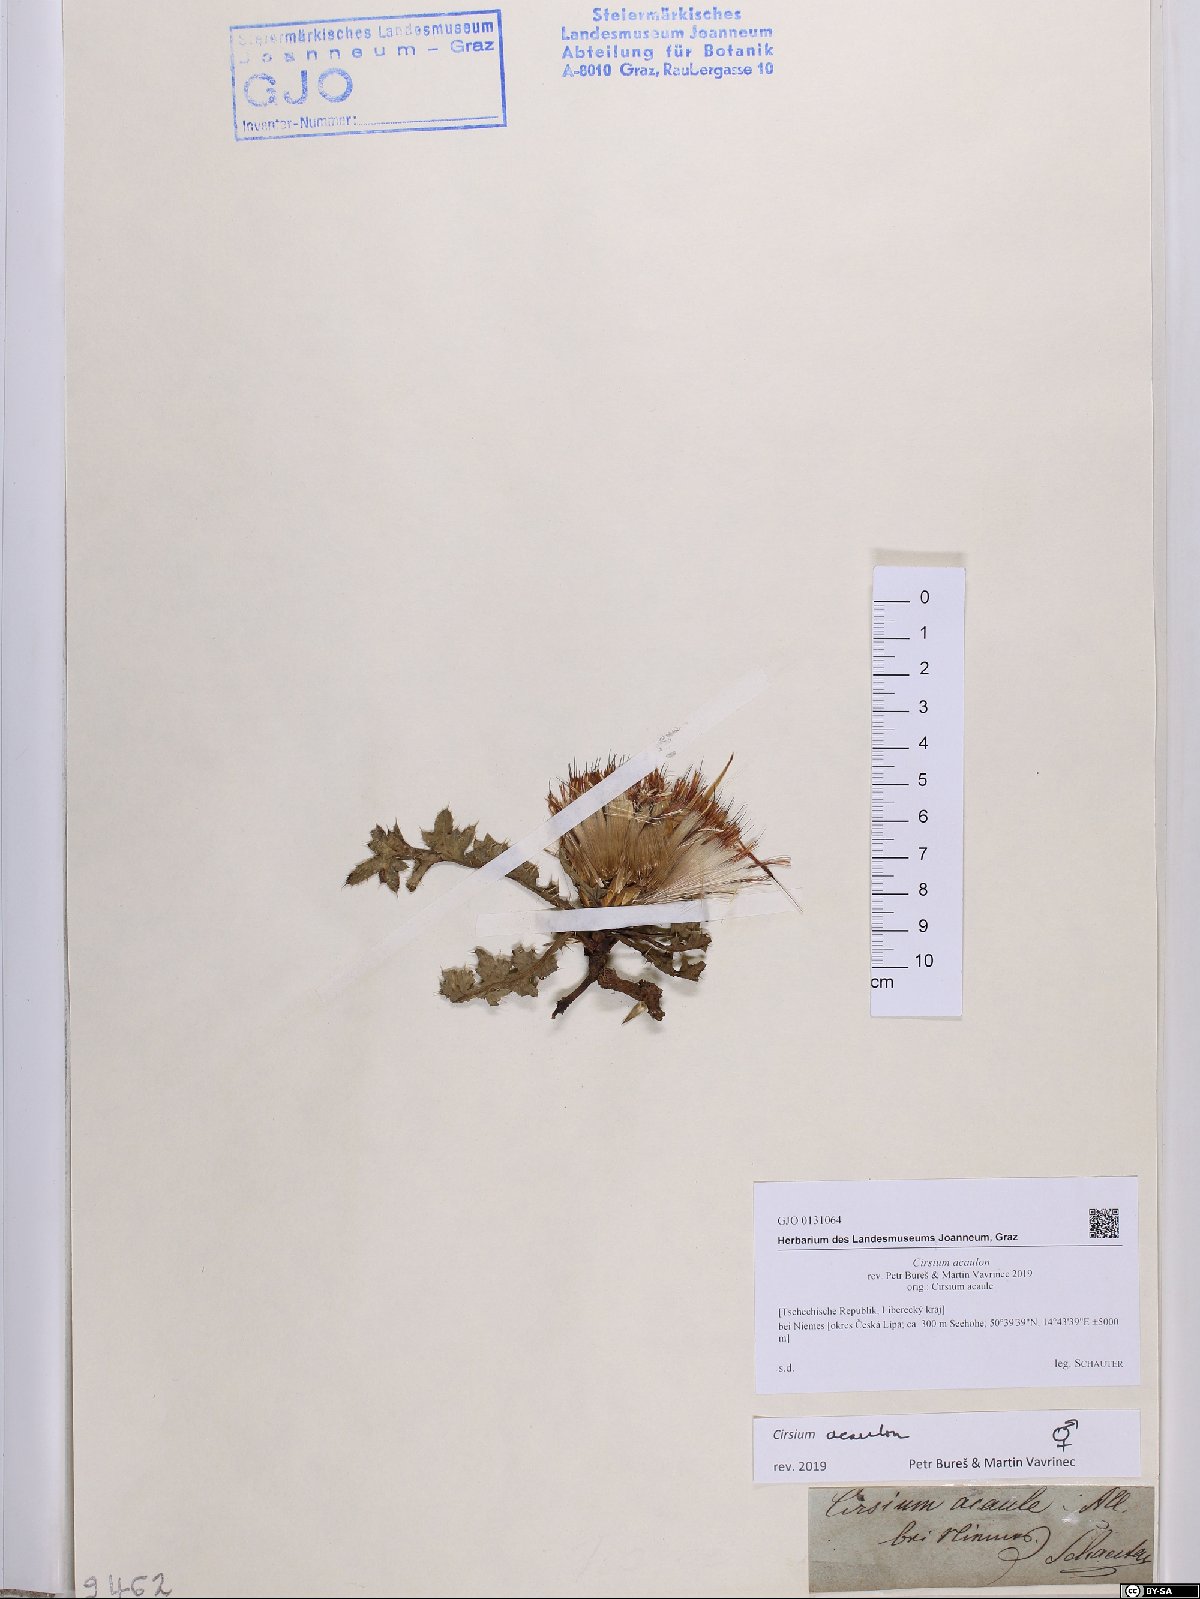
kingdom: Plantae
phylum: Tracheophyta
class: Magnoliopsida
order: Asterales
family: Asteraceae
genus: Cirsium
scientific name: Cirsium acaulon
